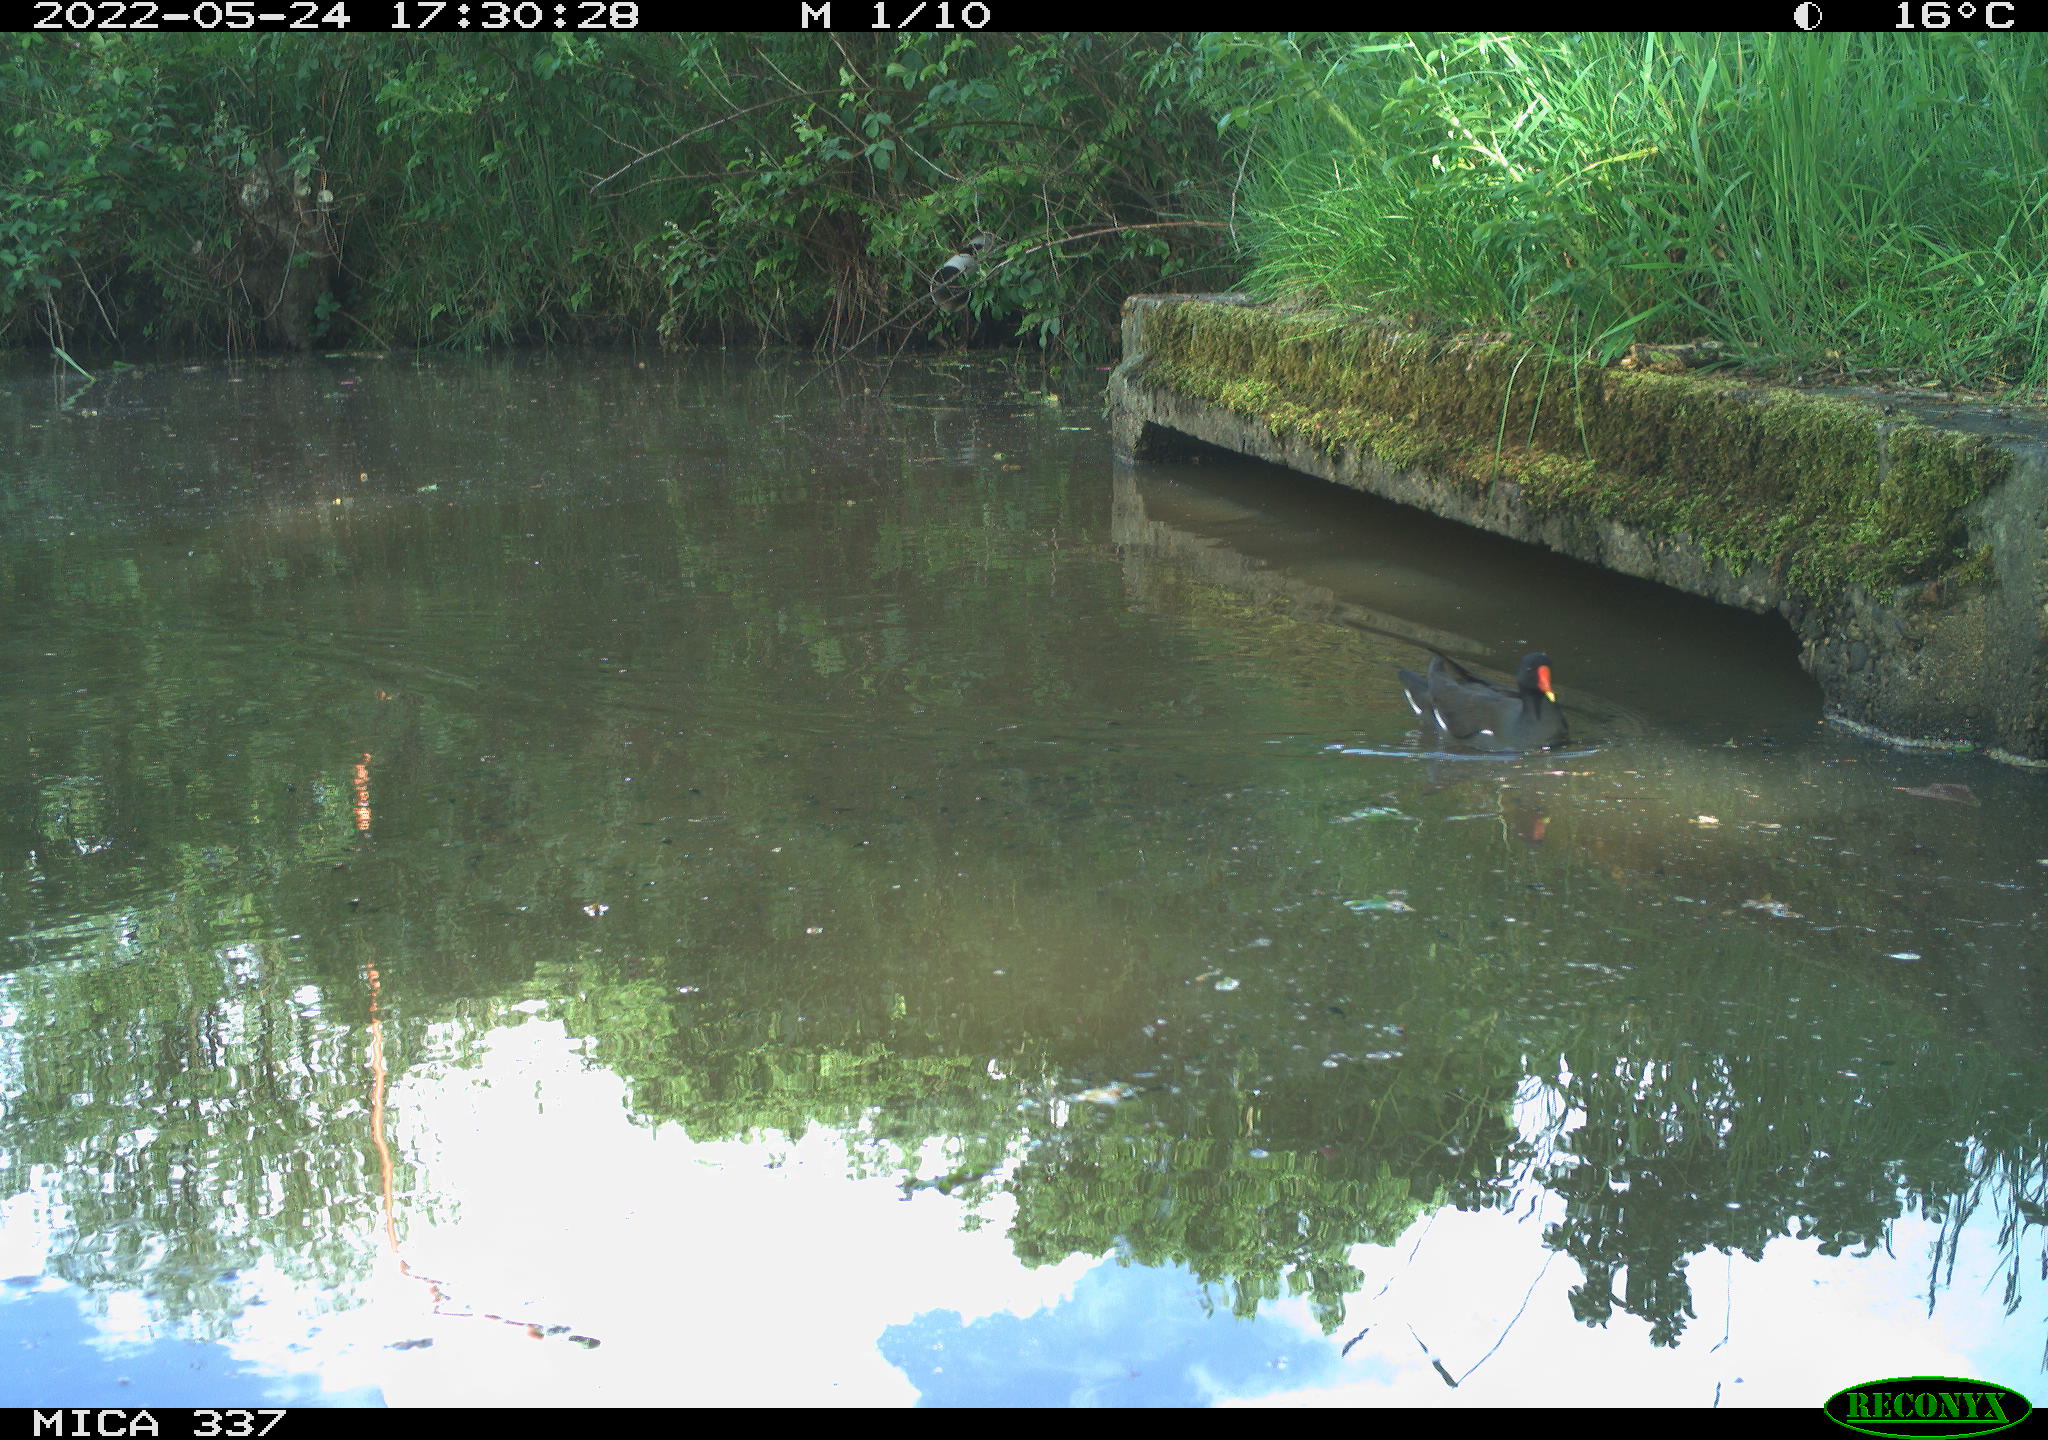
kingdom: Animalia
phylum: Chordata
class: Aves
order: Gruiformes
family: Rallidae
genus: Gallinula
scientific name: Gallinula chloropus
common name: Common moorhen
